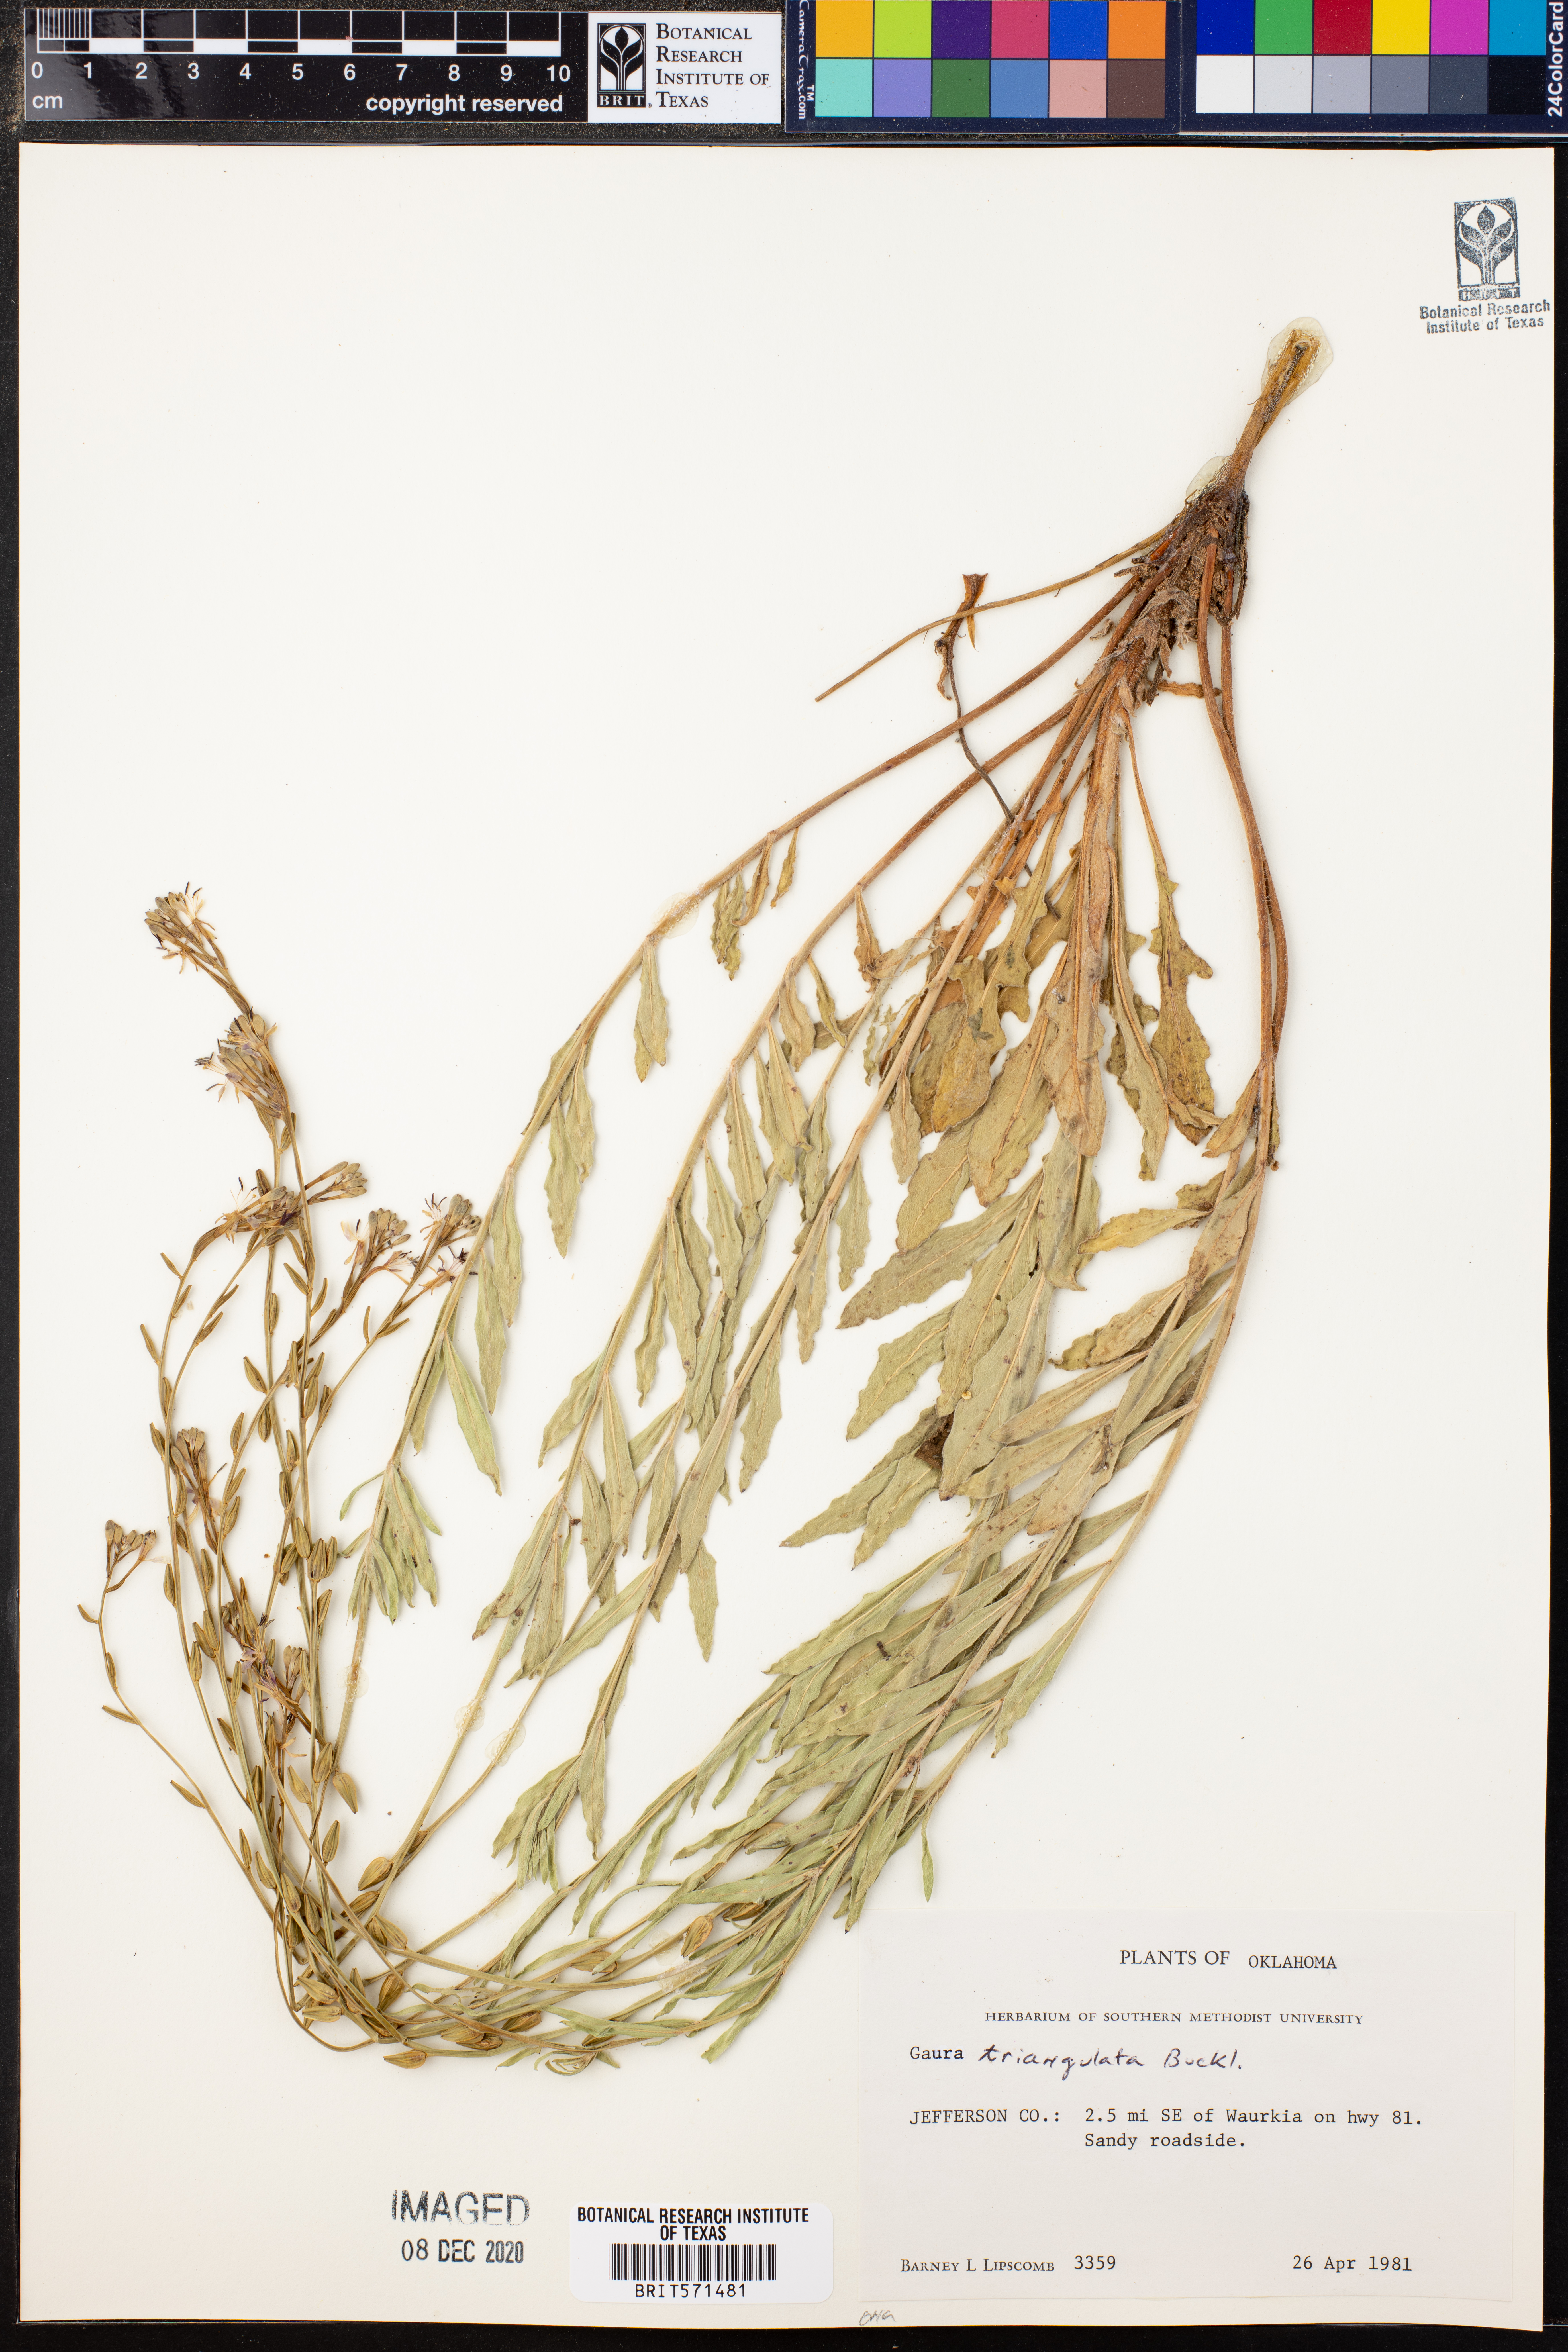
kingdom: Plantae
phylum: Tracheophyta
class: Magnoliopsida
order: Myrtales
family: Onagraceae
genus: Oenothera
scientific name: Oenothera triangulata
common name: Prairie beeblossom
